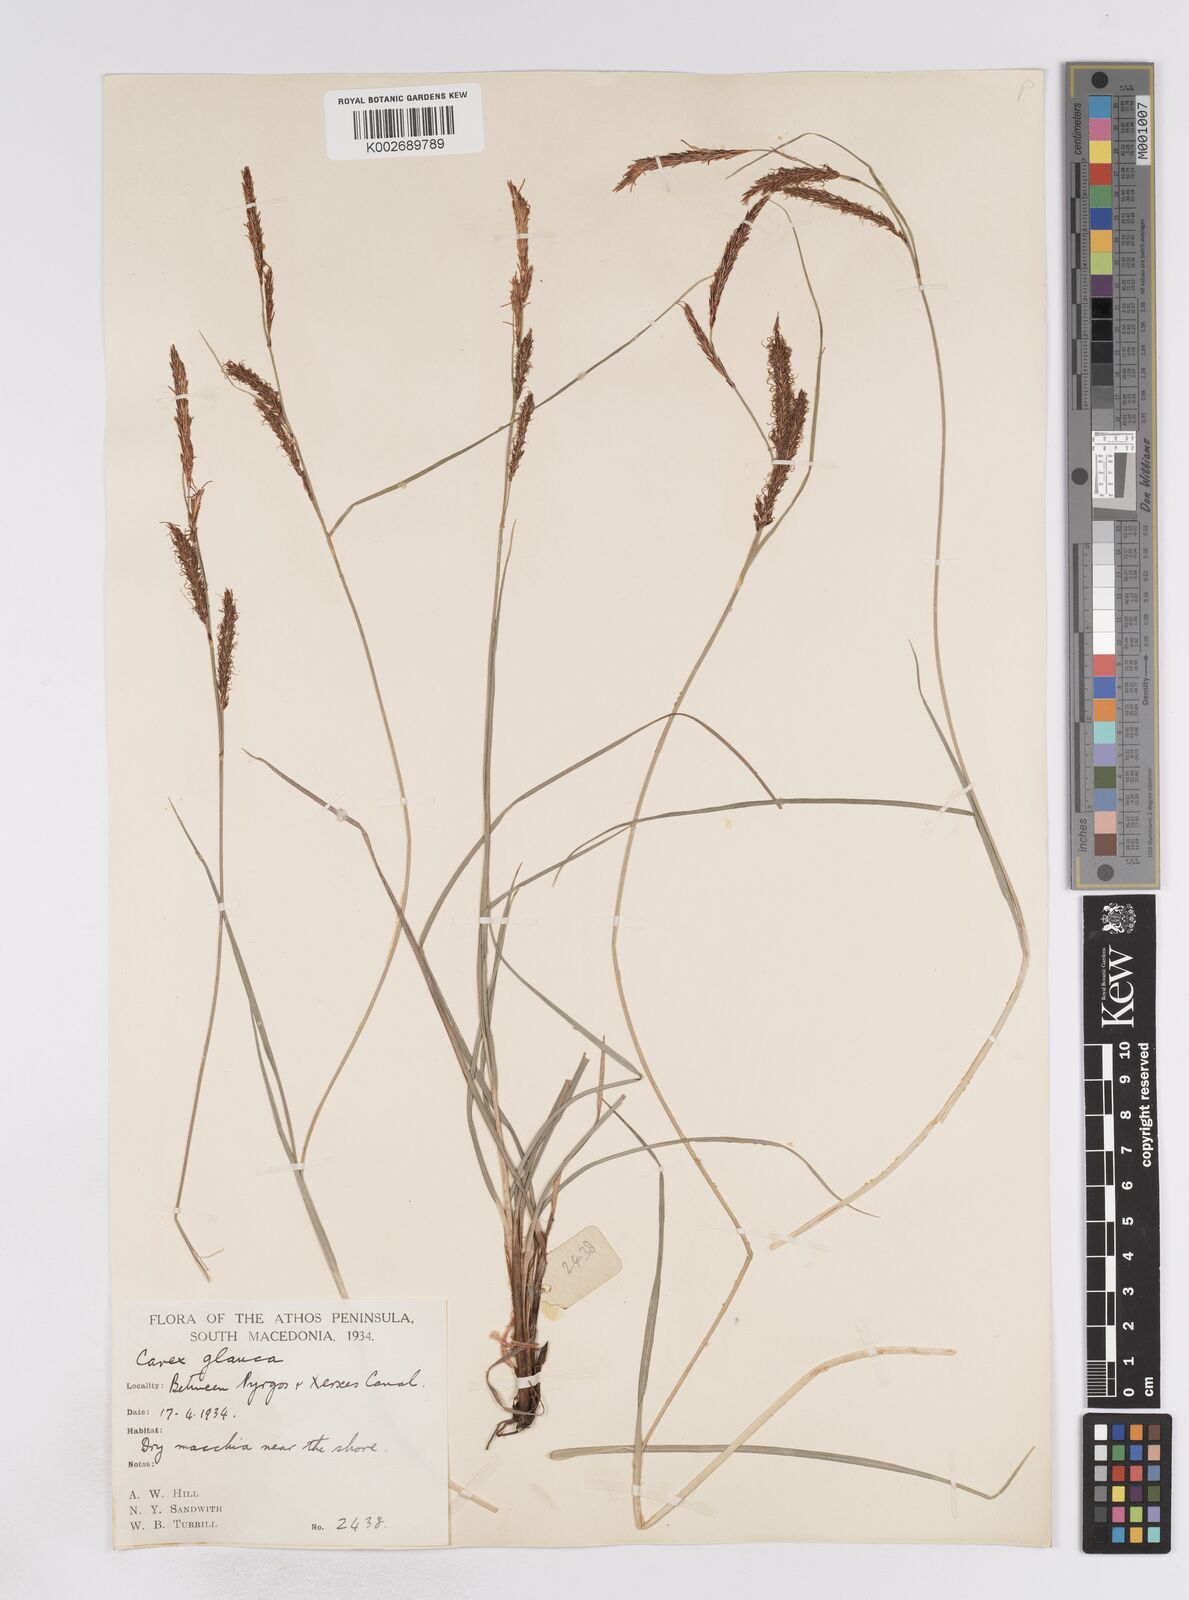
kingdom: Plantae
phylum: Tracheophyta
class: Liliopsida
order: Poales
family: Cyperaceae
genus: Carex
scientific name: Carex flacca
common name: Glaucous sedge
